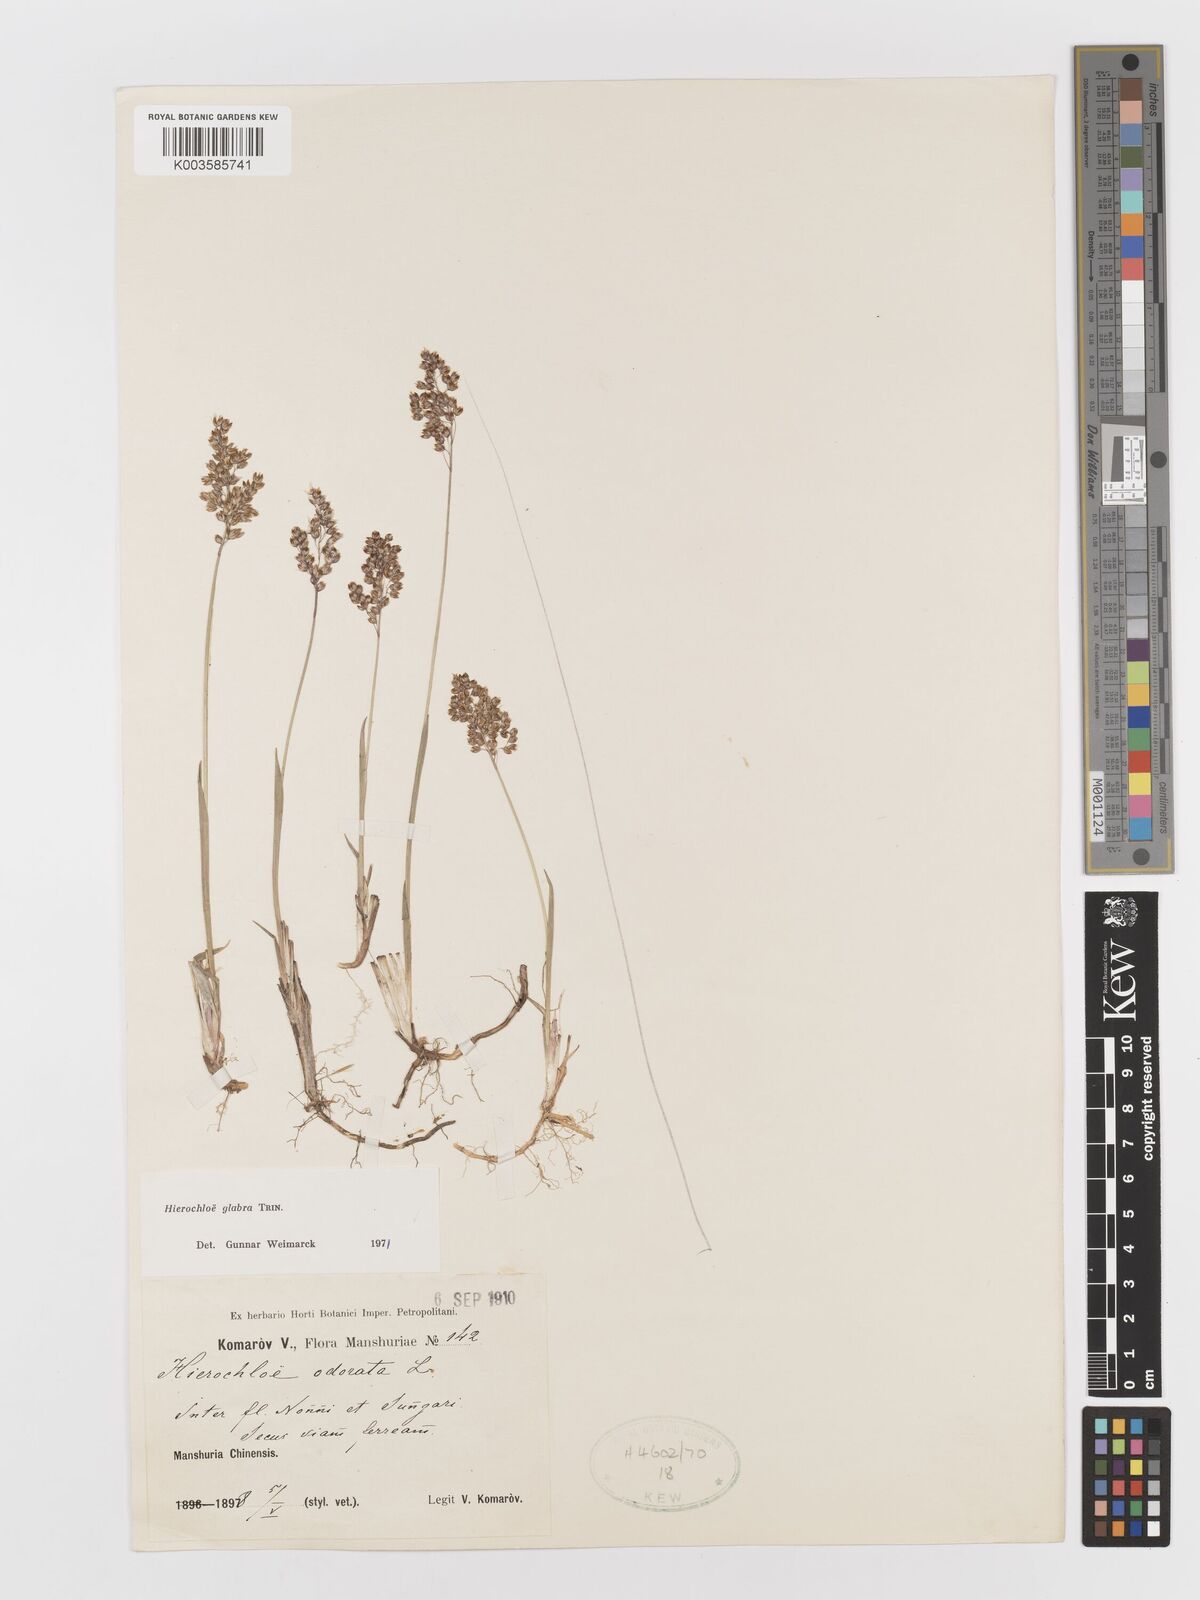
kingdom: Plantae
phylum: Tracheophyta
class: Liliopsida
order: Poales
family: Poaceae
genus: Anthoxanthum
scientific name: Anthoxanthum glabrum
